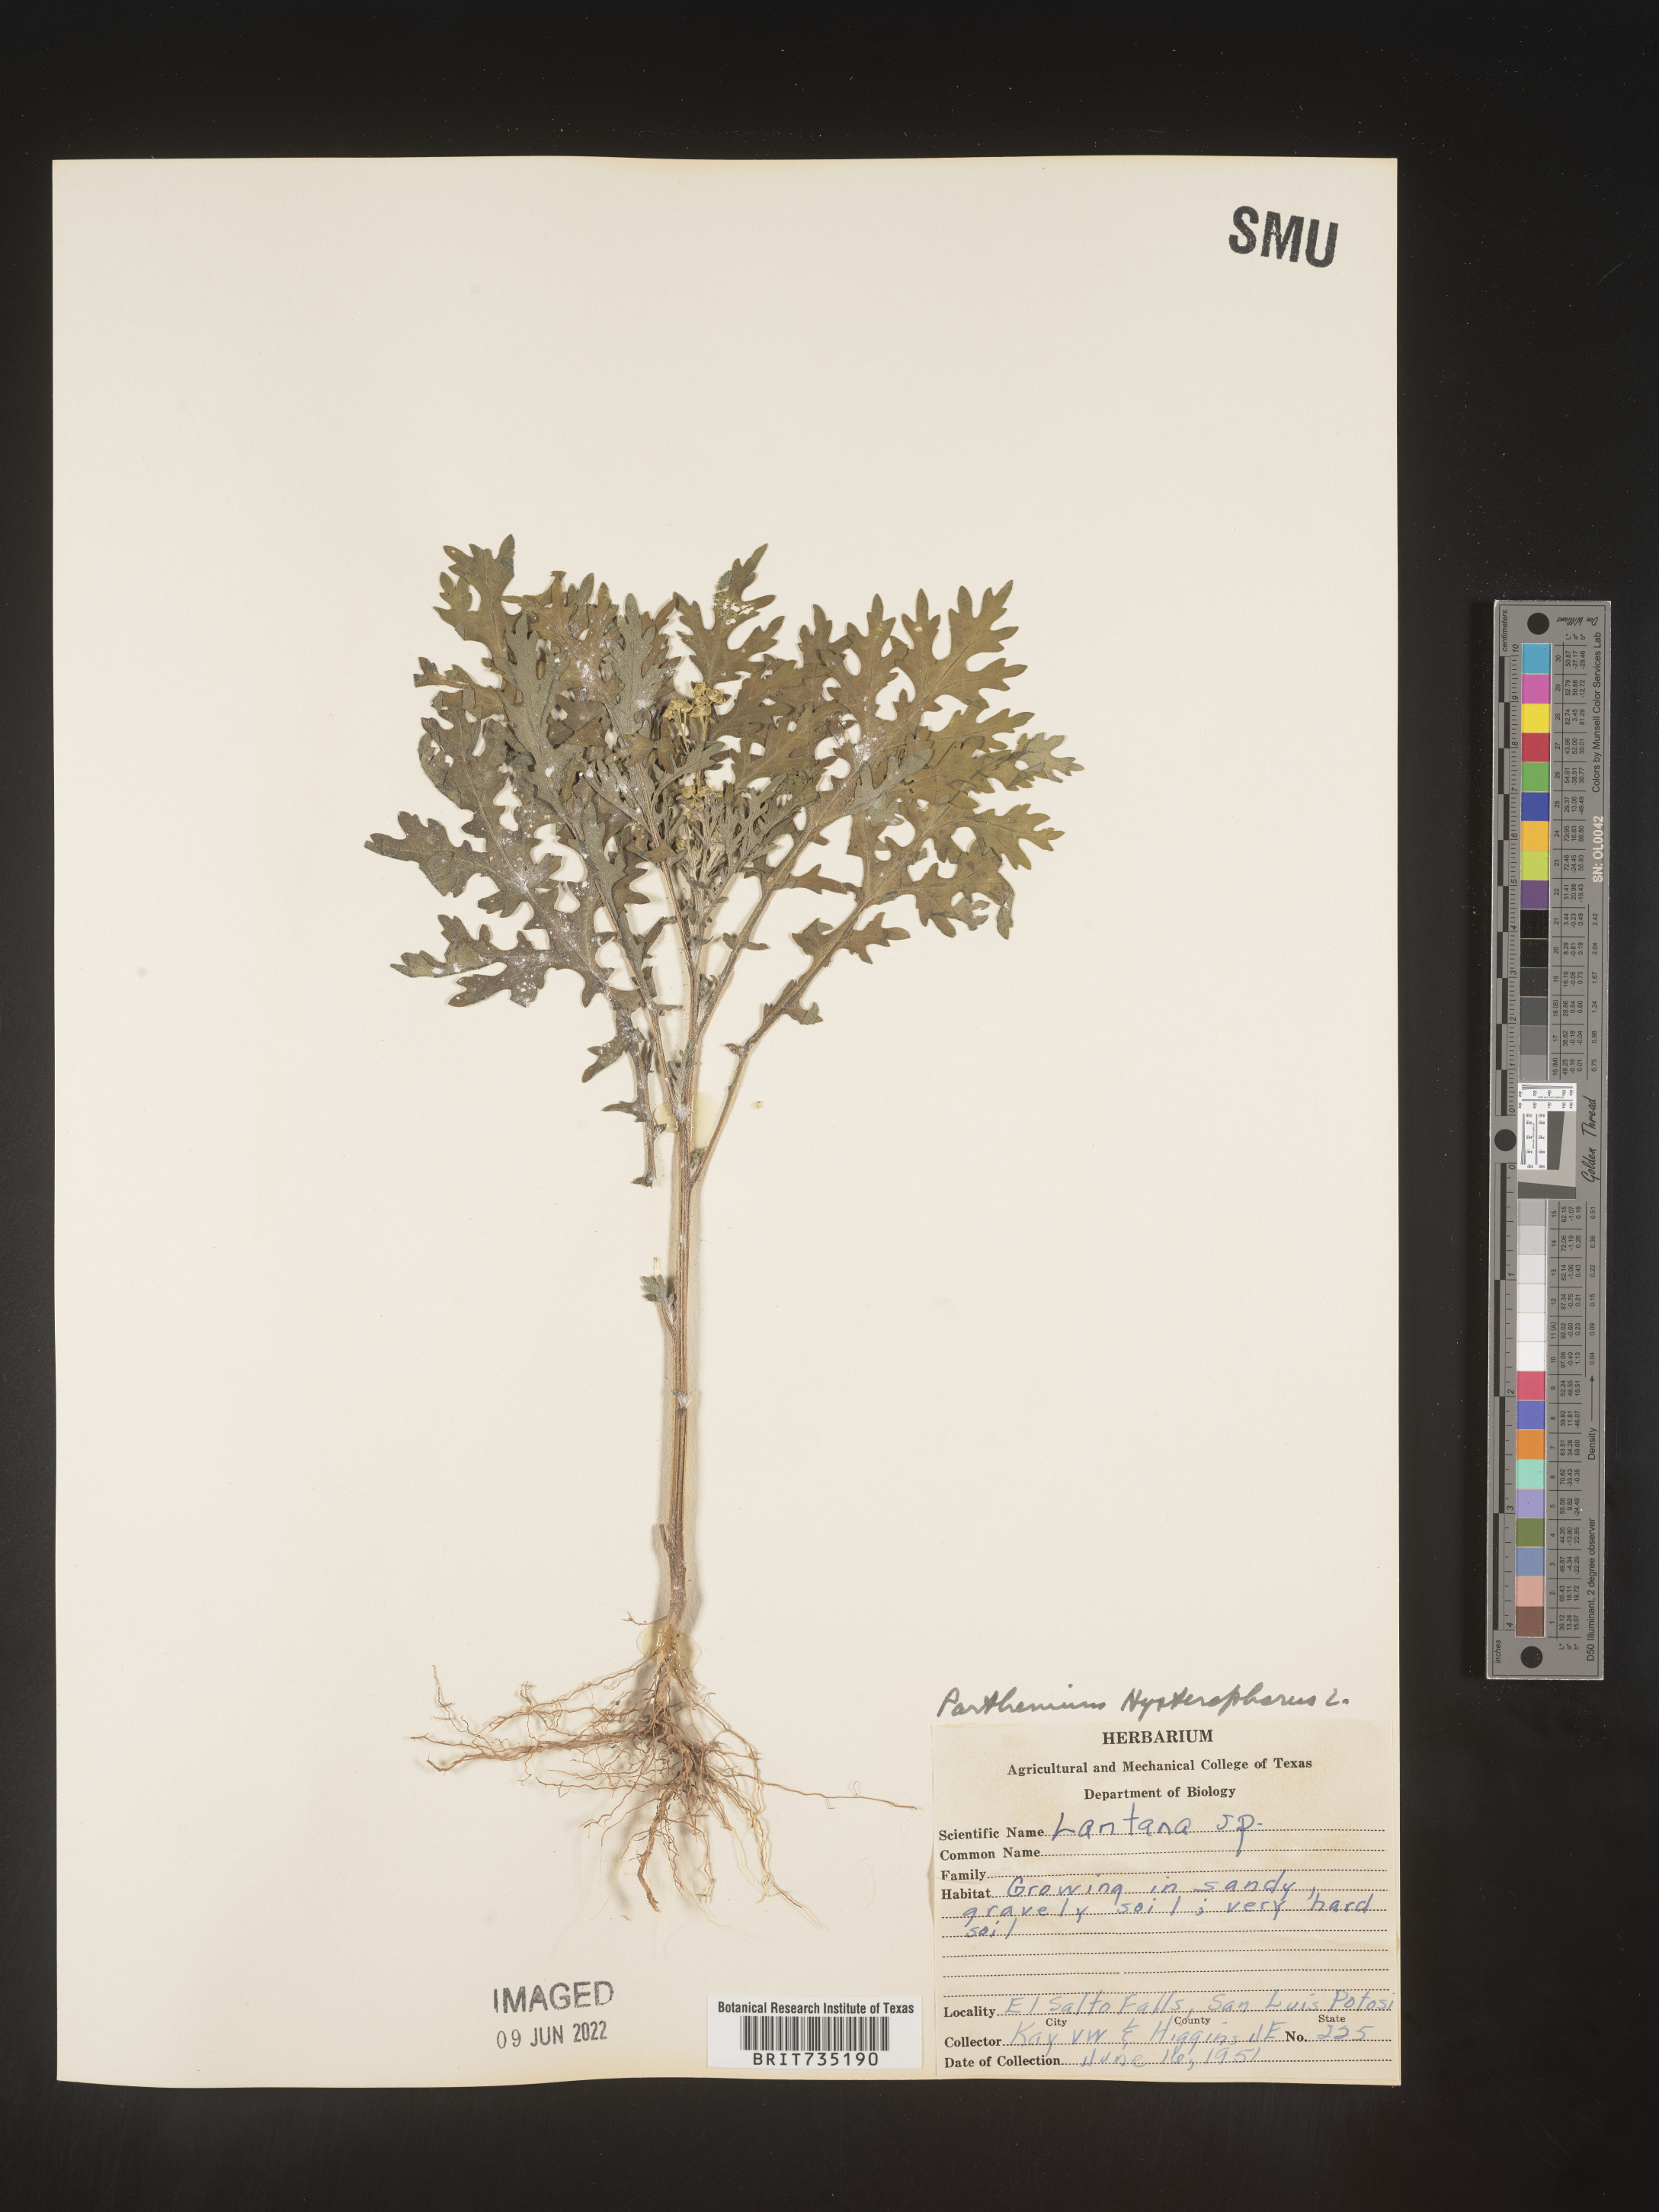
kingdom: Plantae
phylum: Tracheophyta
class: Magnoliopsida
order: Asterales
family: Asteraceae
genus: Parthenium
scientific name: Parthenium hysterophorus
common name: Santa maria feverfew
